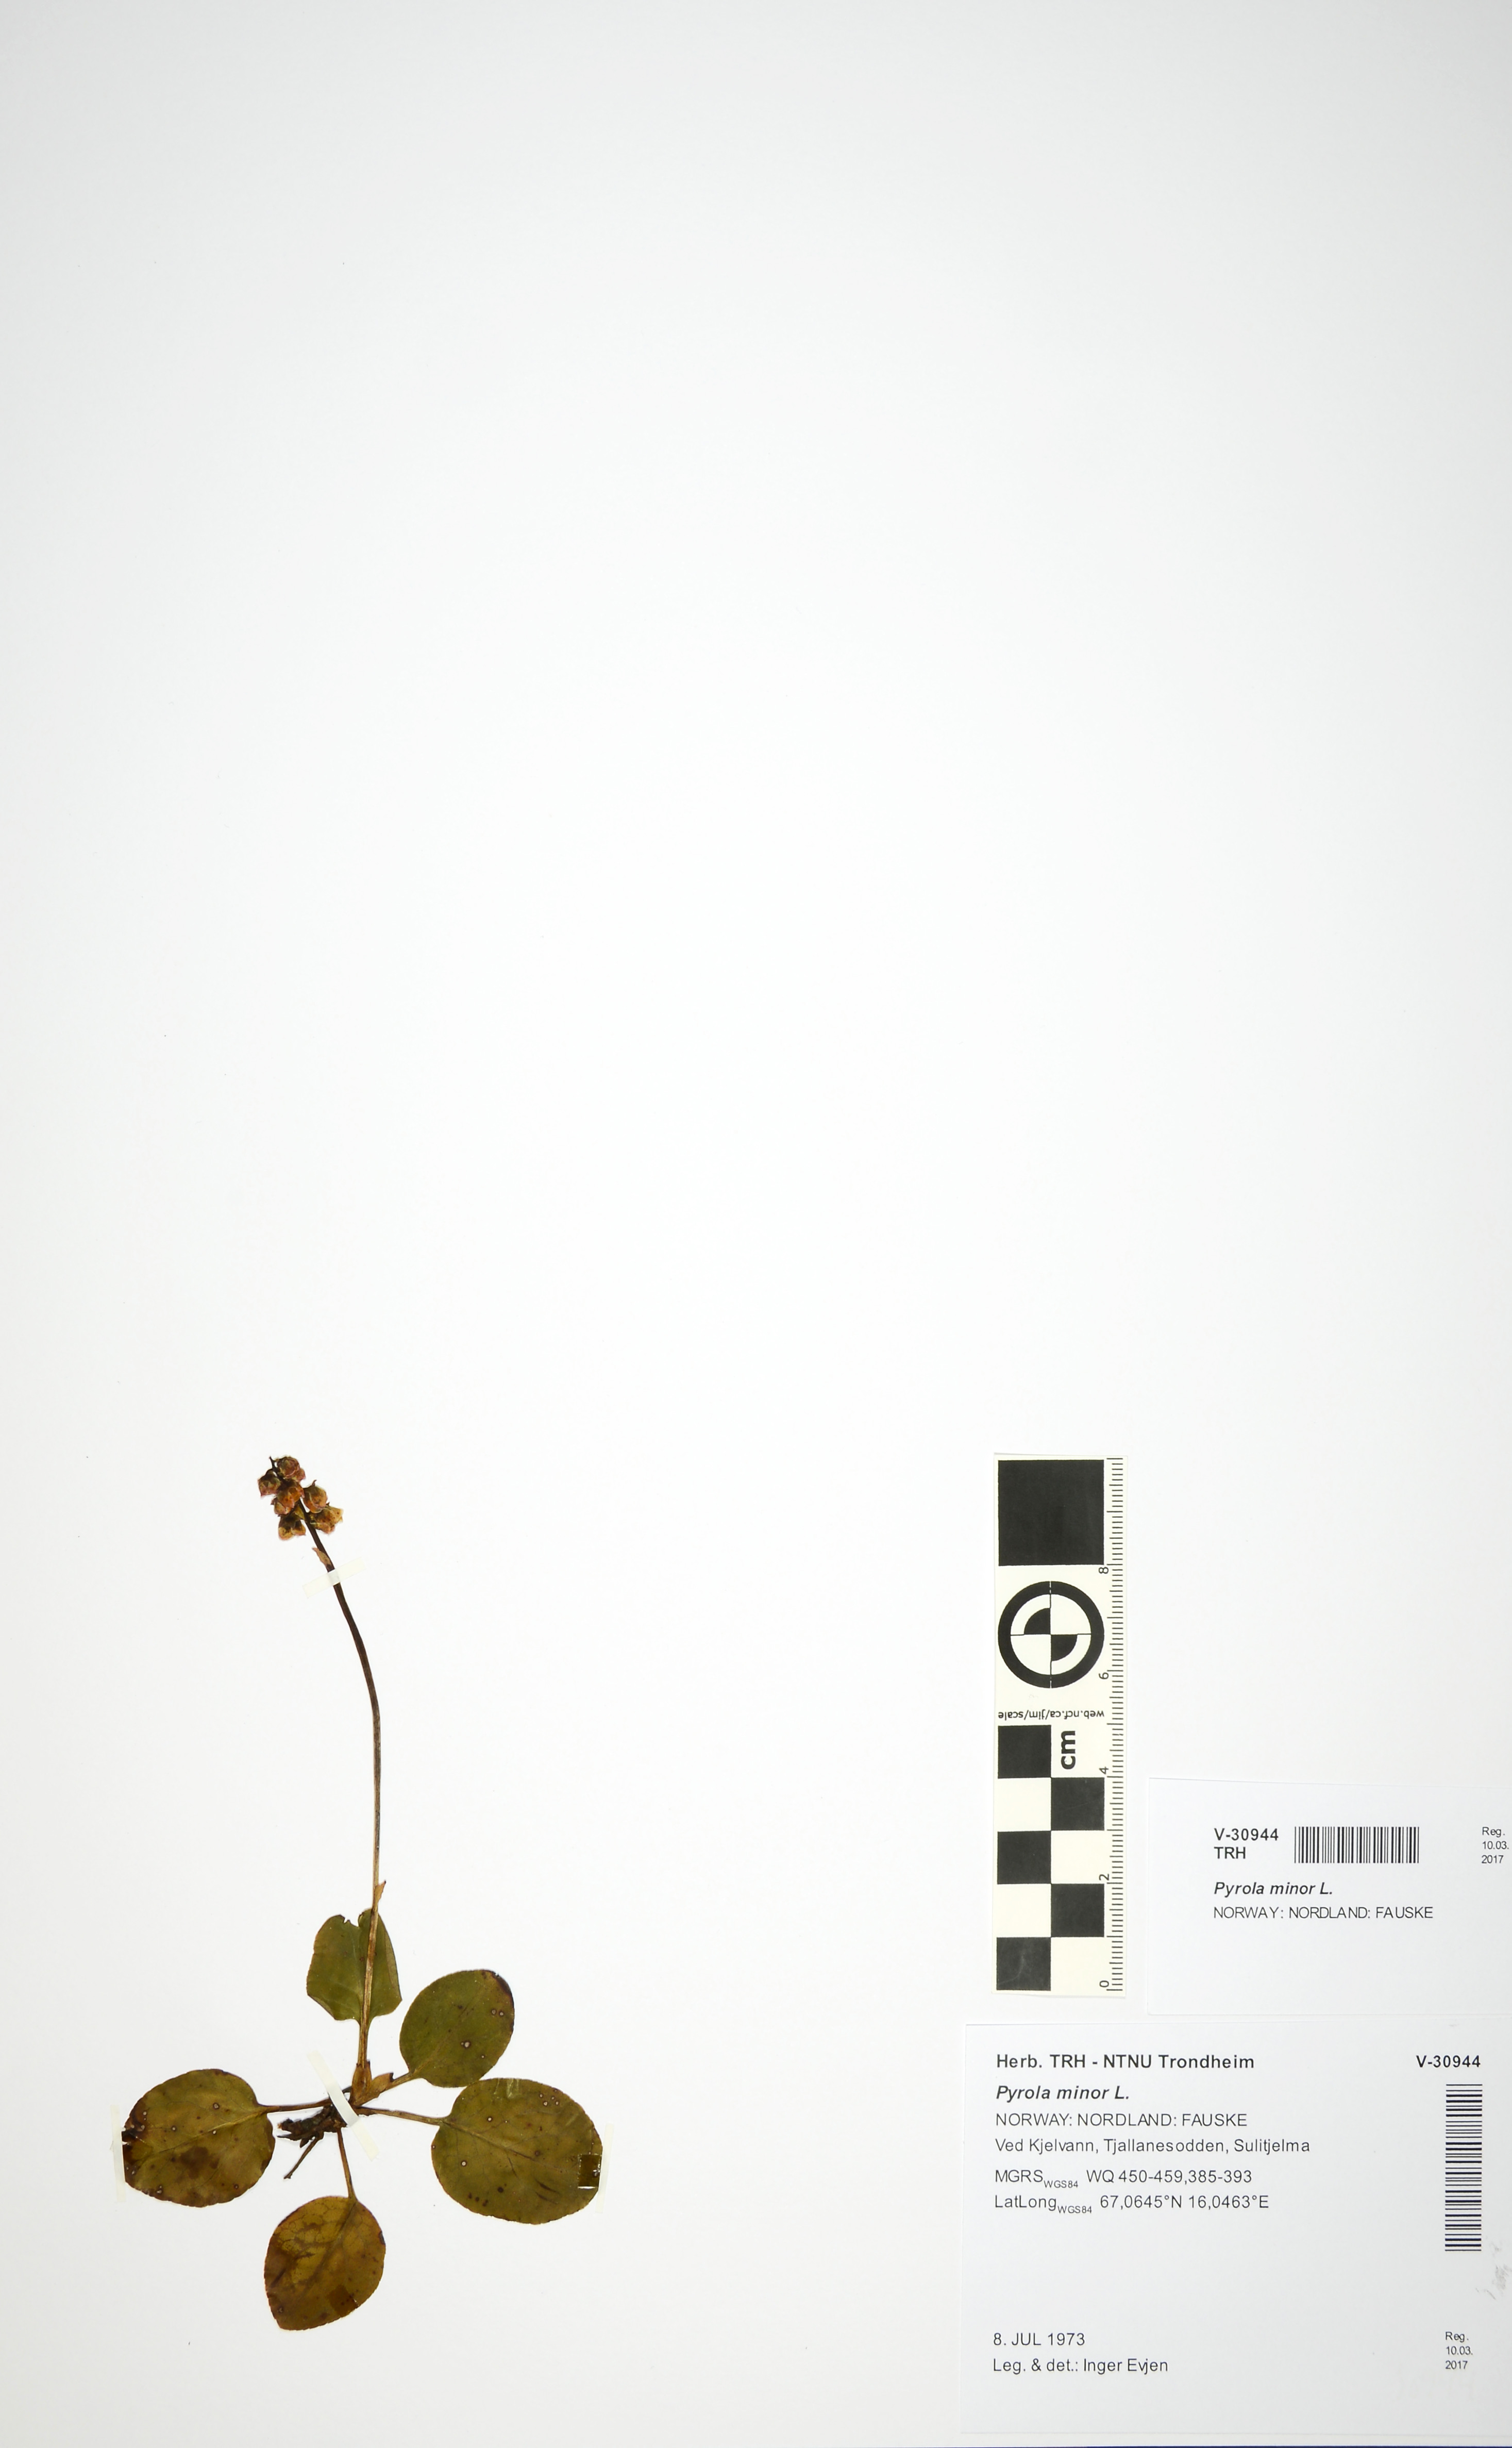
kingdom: Plantae
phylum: Tracheophyta
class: Magnoliopsida
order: Ericales
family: Ericaceae
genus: Pyrola
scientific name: Pyrola minor
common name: Common wintergreen
